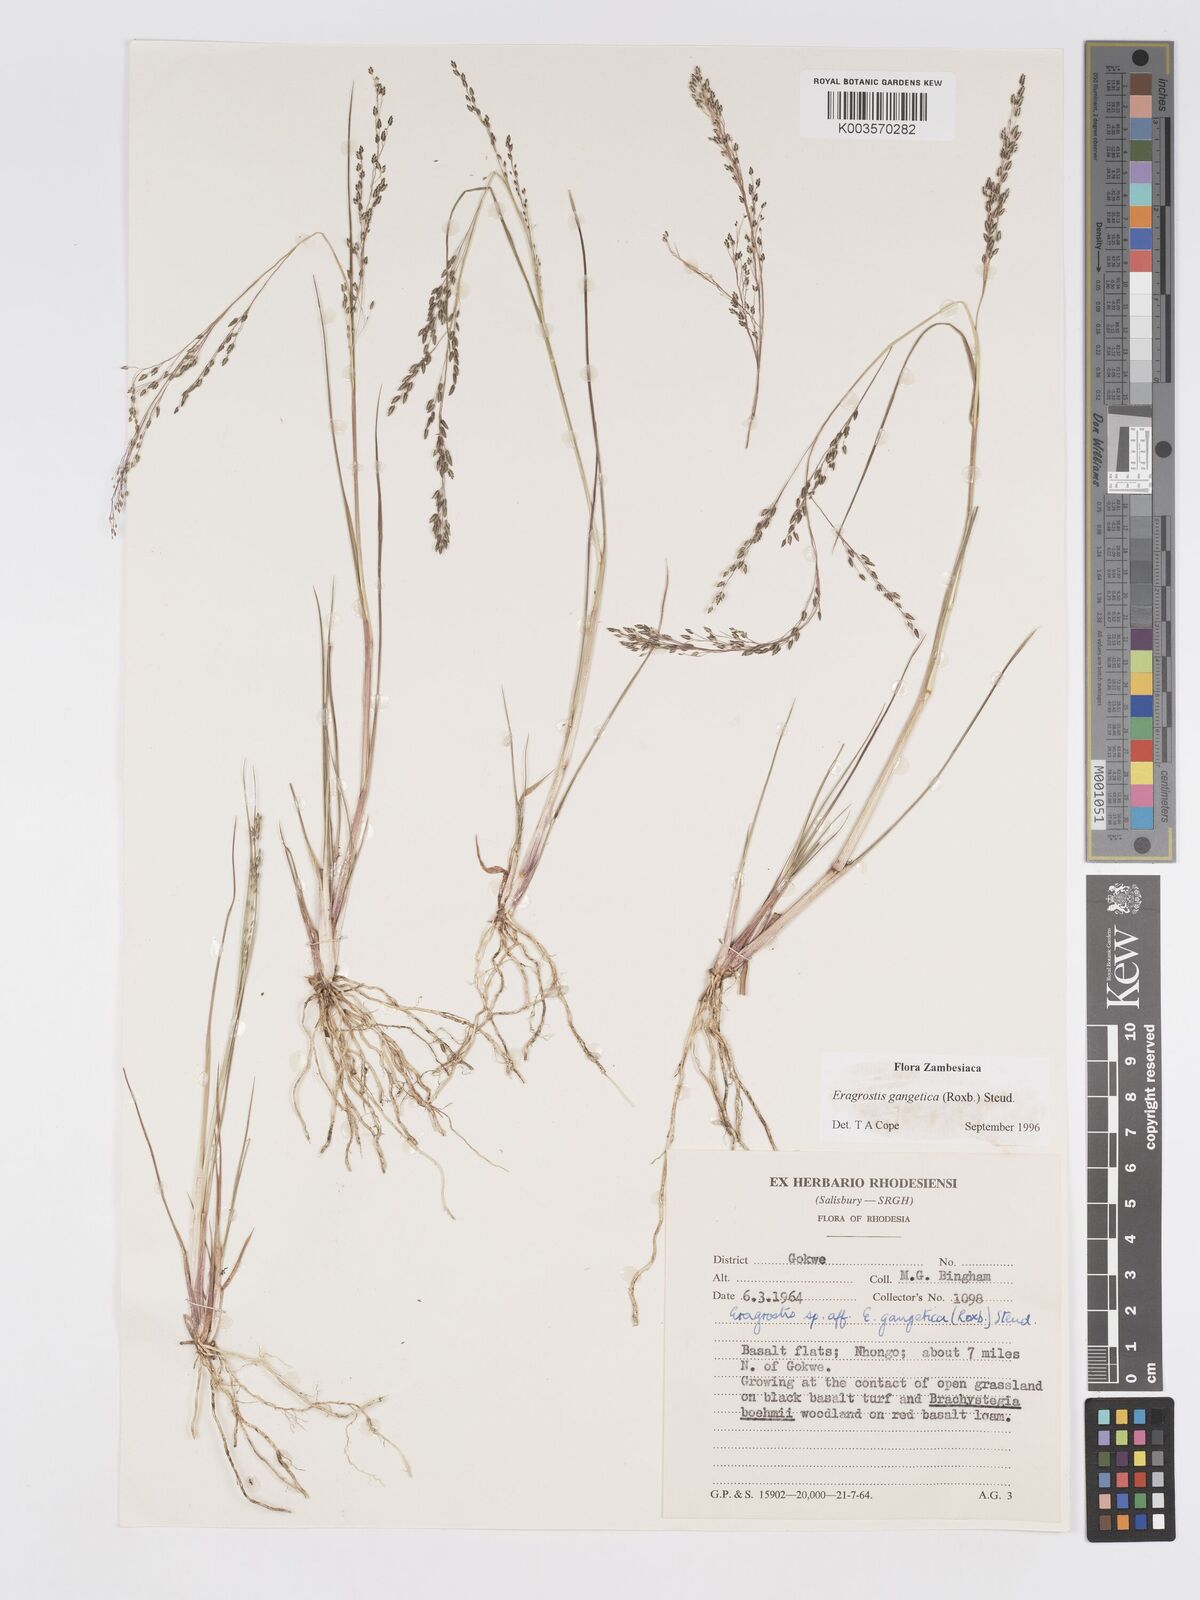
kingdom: Plantae
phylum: Tracheophyta
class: Liliopsida
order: Poales
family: Poaceae
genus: Eragrostis
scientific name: Eragrostis gangetica
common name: Slimflower lovegrass
